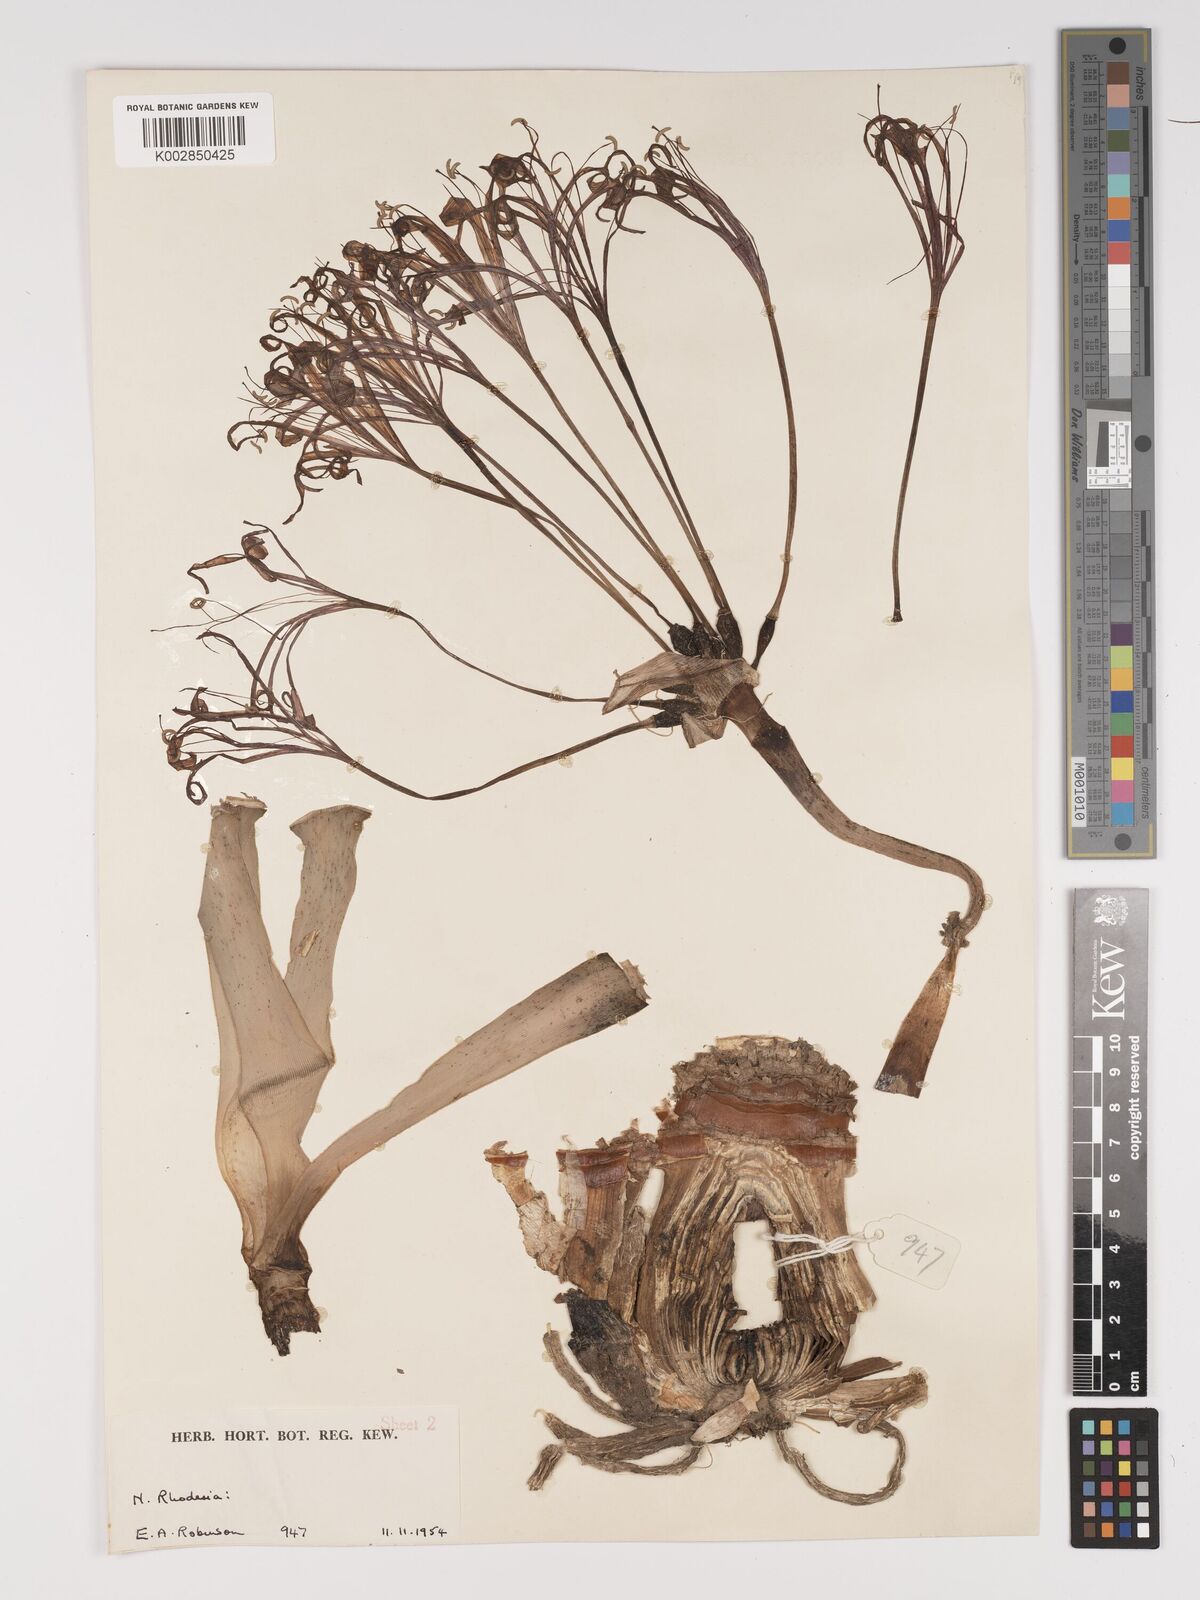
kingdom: Plantae
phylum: Tracheophyta
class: Liliopsida
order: Asparagales
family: Amaryllidaceae
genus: Ammocharis
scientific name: Ammocharis tinneana
